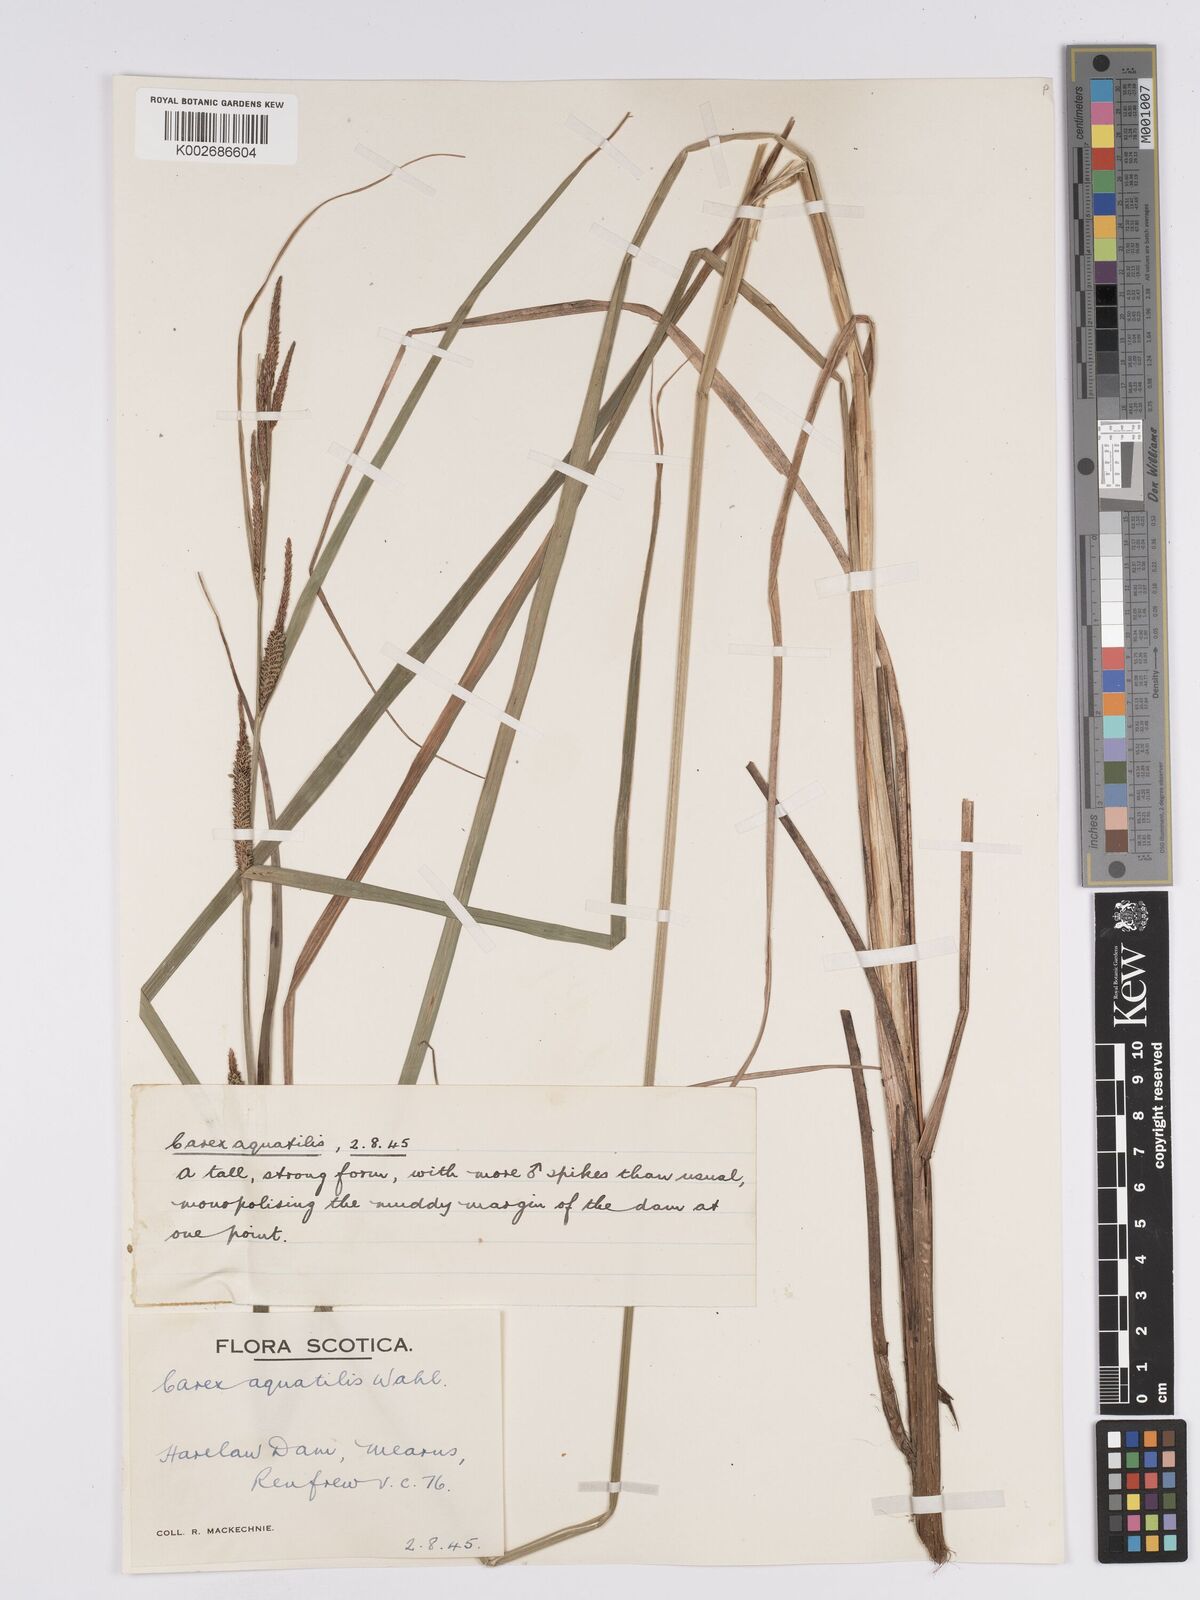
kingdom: Plantae
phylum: Tracheophyta
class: Liliopsida
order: Poales
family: Cyperaceae
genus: Carex
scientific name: Carex aquatilis
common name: Water sedge
